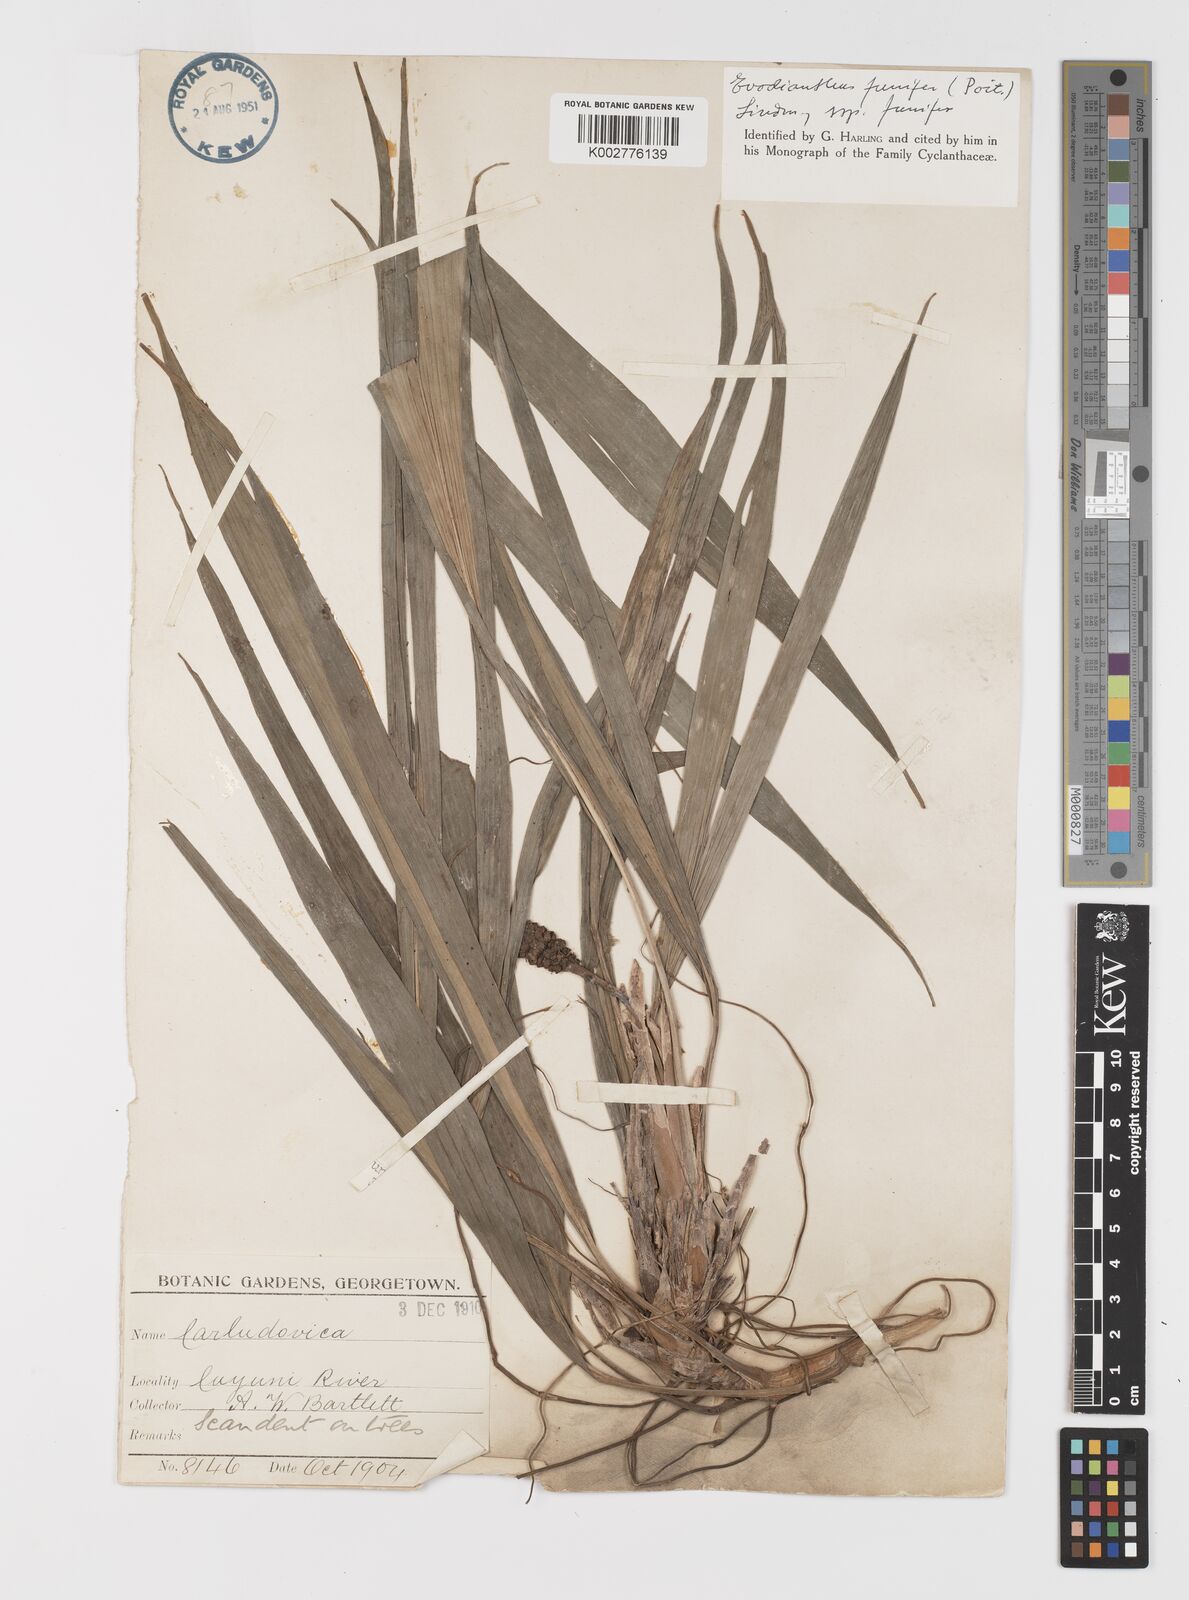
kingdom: Plantae
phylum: Tracheophyta
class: Liliopsida
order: Pandanales
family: Cyclanthaceae
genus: Evodianthus
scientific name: Evodianthus funifer
